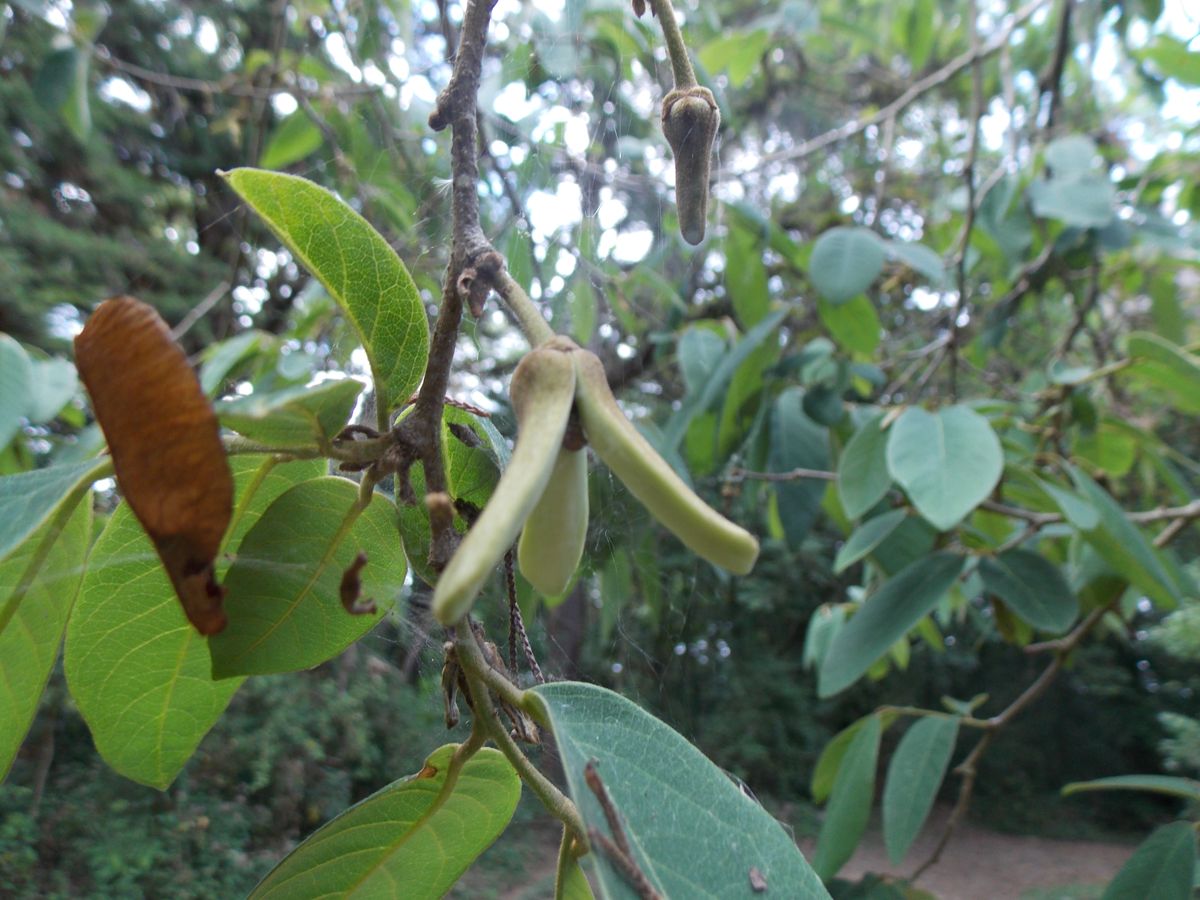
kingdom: Plantae
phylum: Tracheophyta
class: Magnoliopsida
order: Magnoliales
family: Annonaceae
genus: Annona
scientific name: Annona
